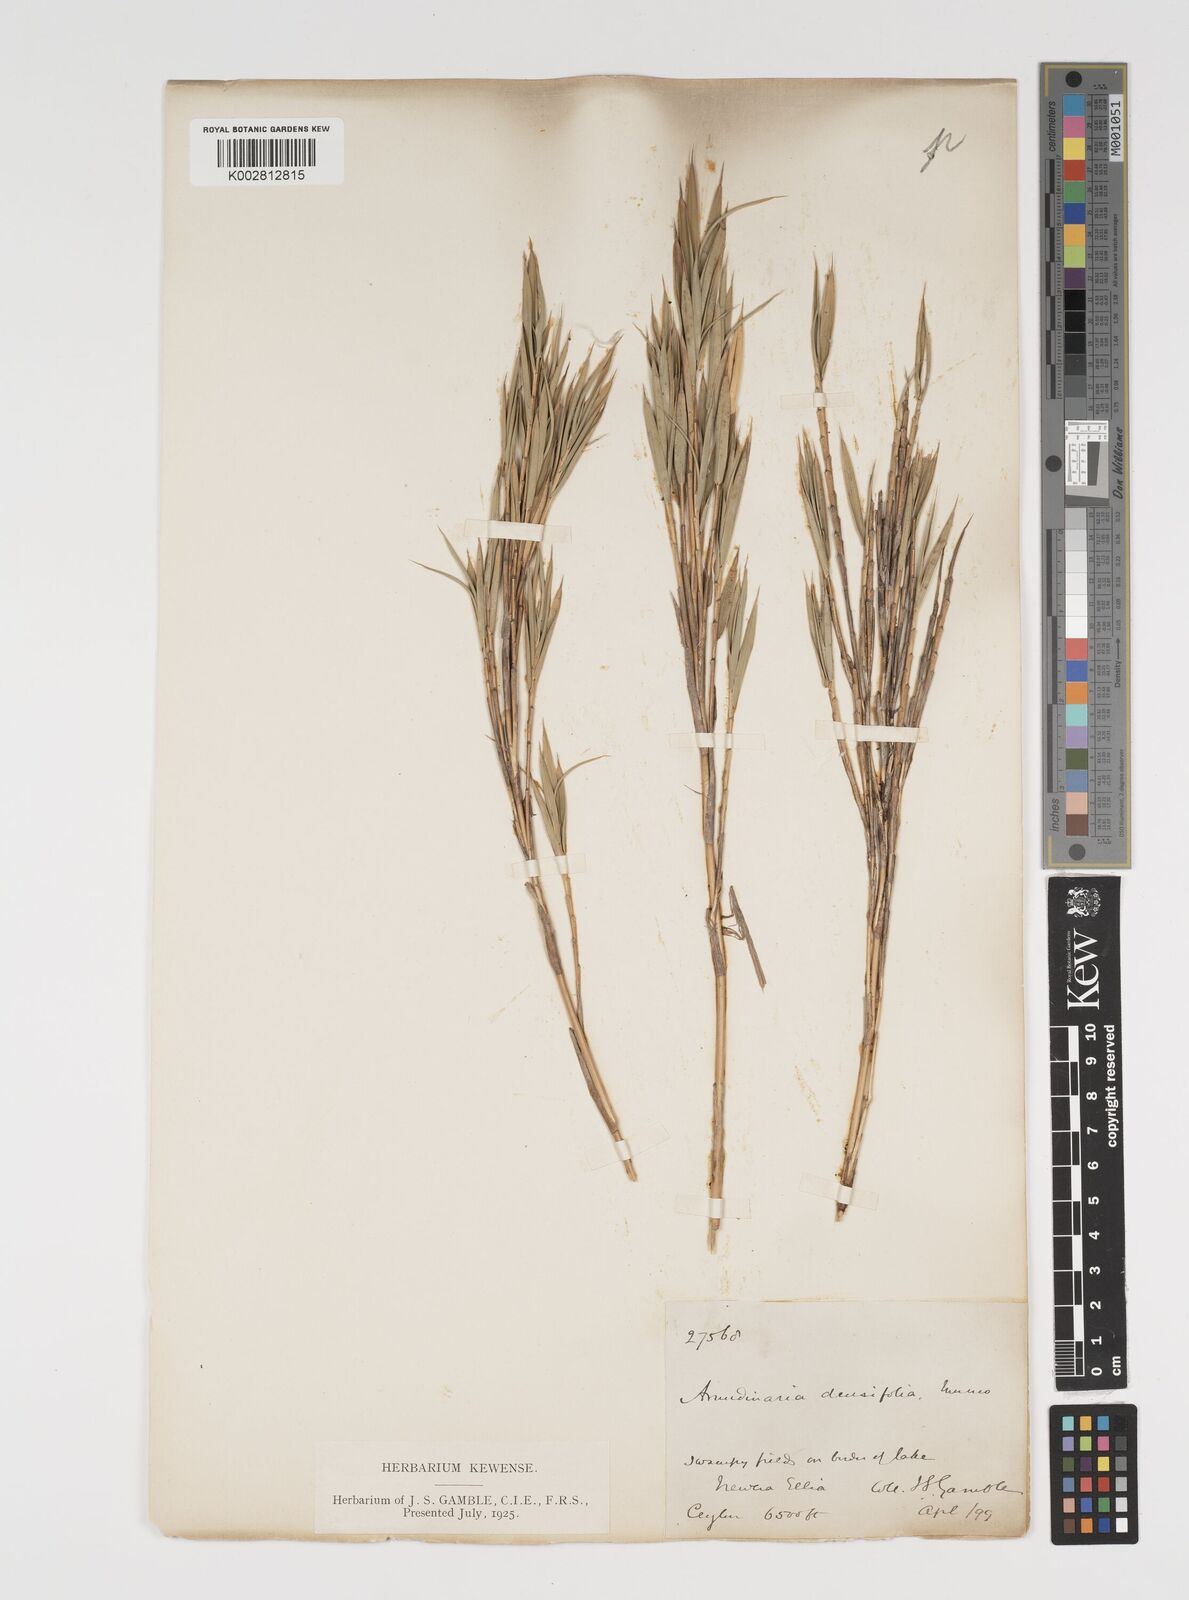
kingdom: Plantae
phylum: Tracheophyta
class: Liliopsida
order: Poales
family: Poaceae
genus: Kuruna
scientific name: Kuruna densifolia
